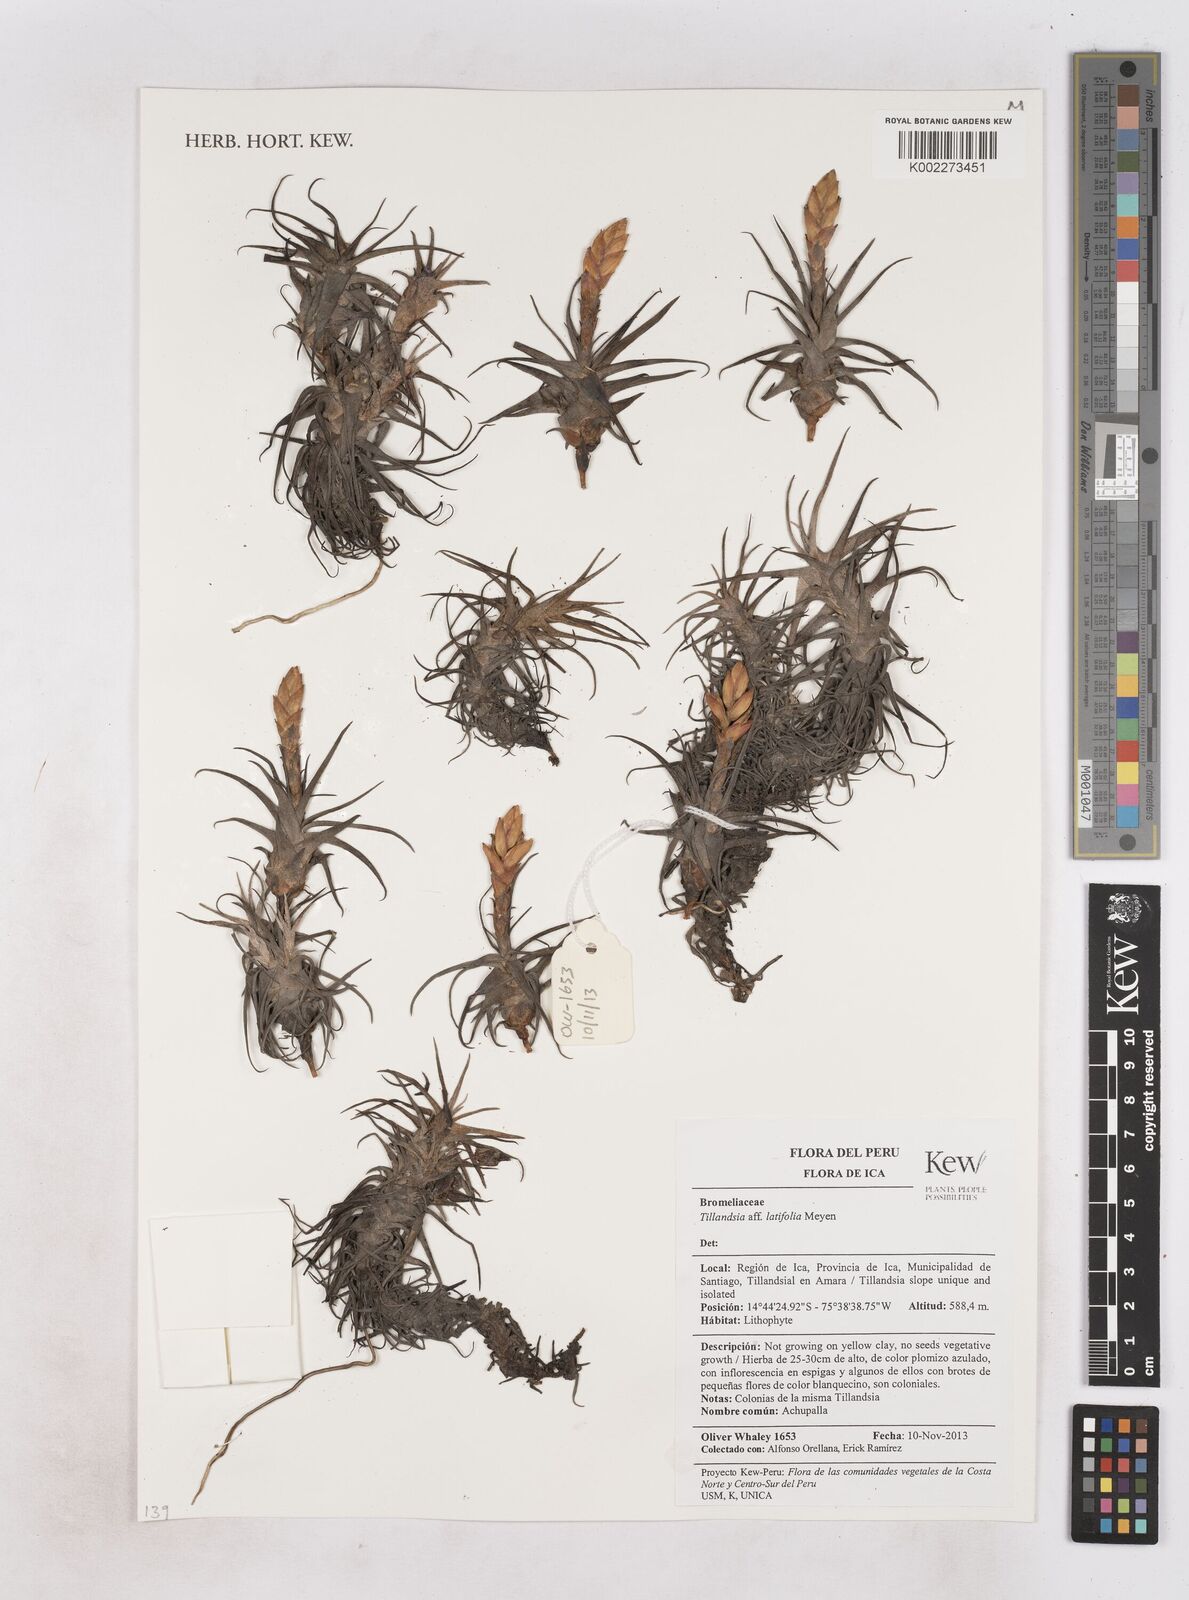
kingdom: Plantae
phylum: Tracheophyta
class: Liliopsida
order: Poales
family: Bromeliaceae
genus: Tillandsia
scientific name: Tillandsia latifolia
